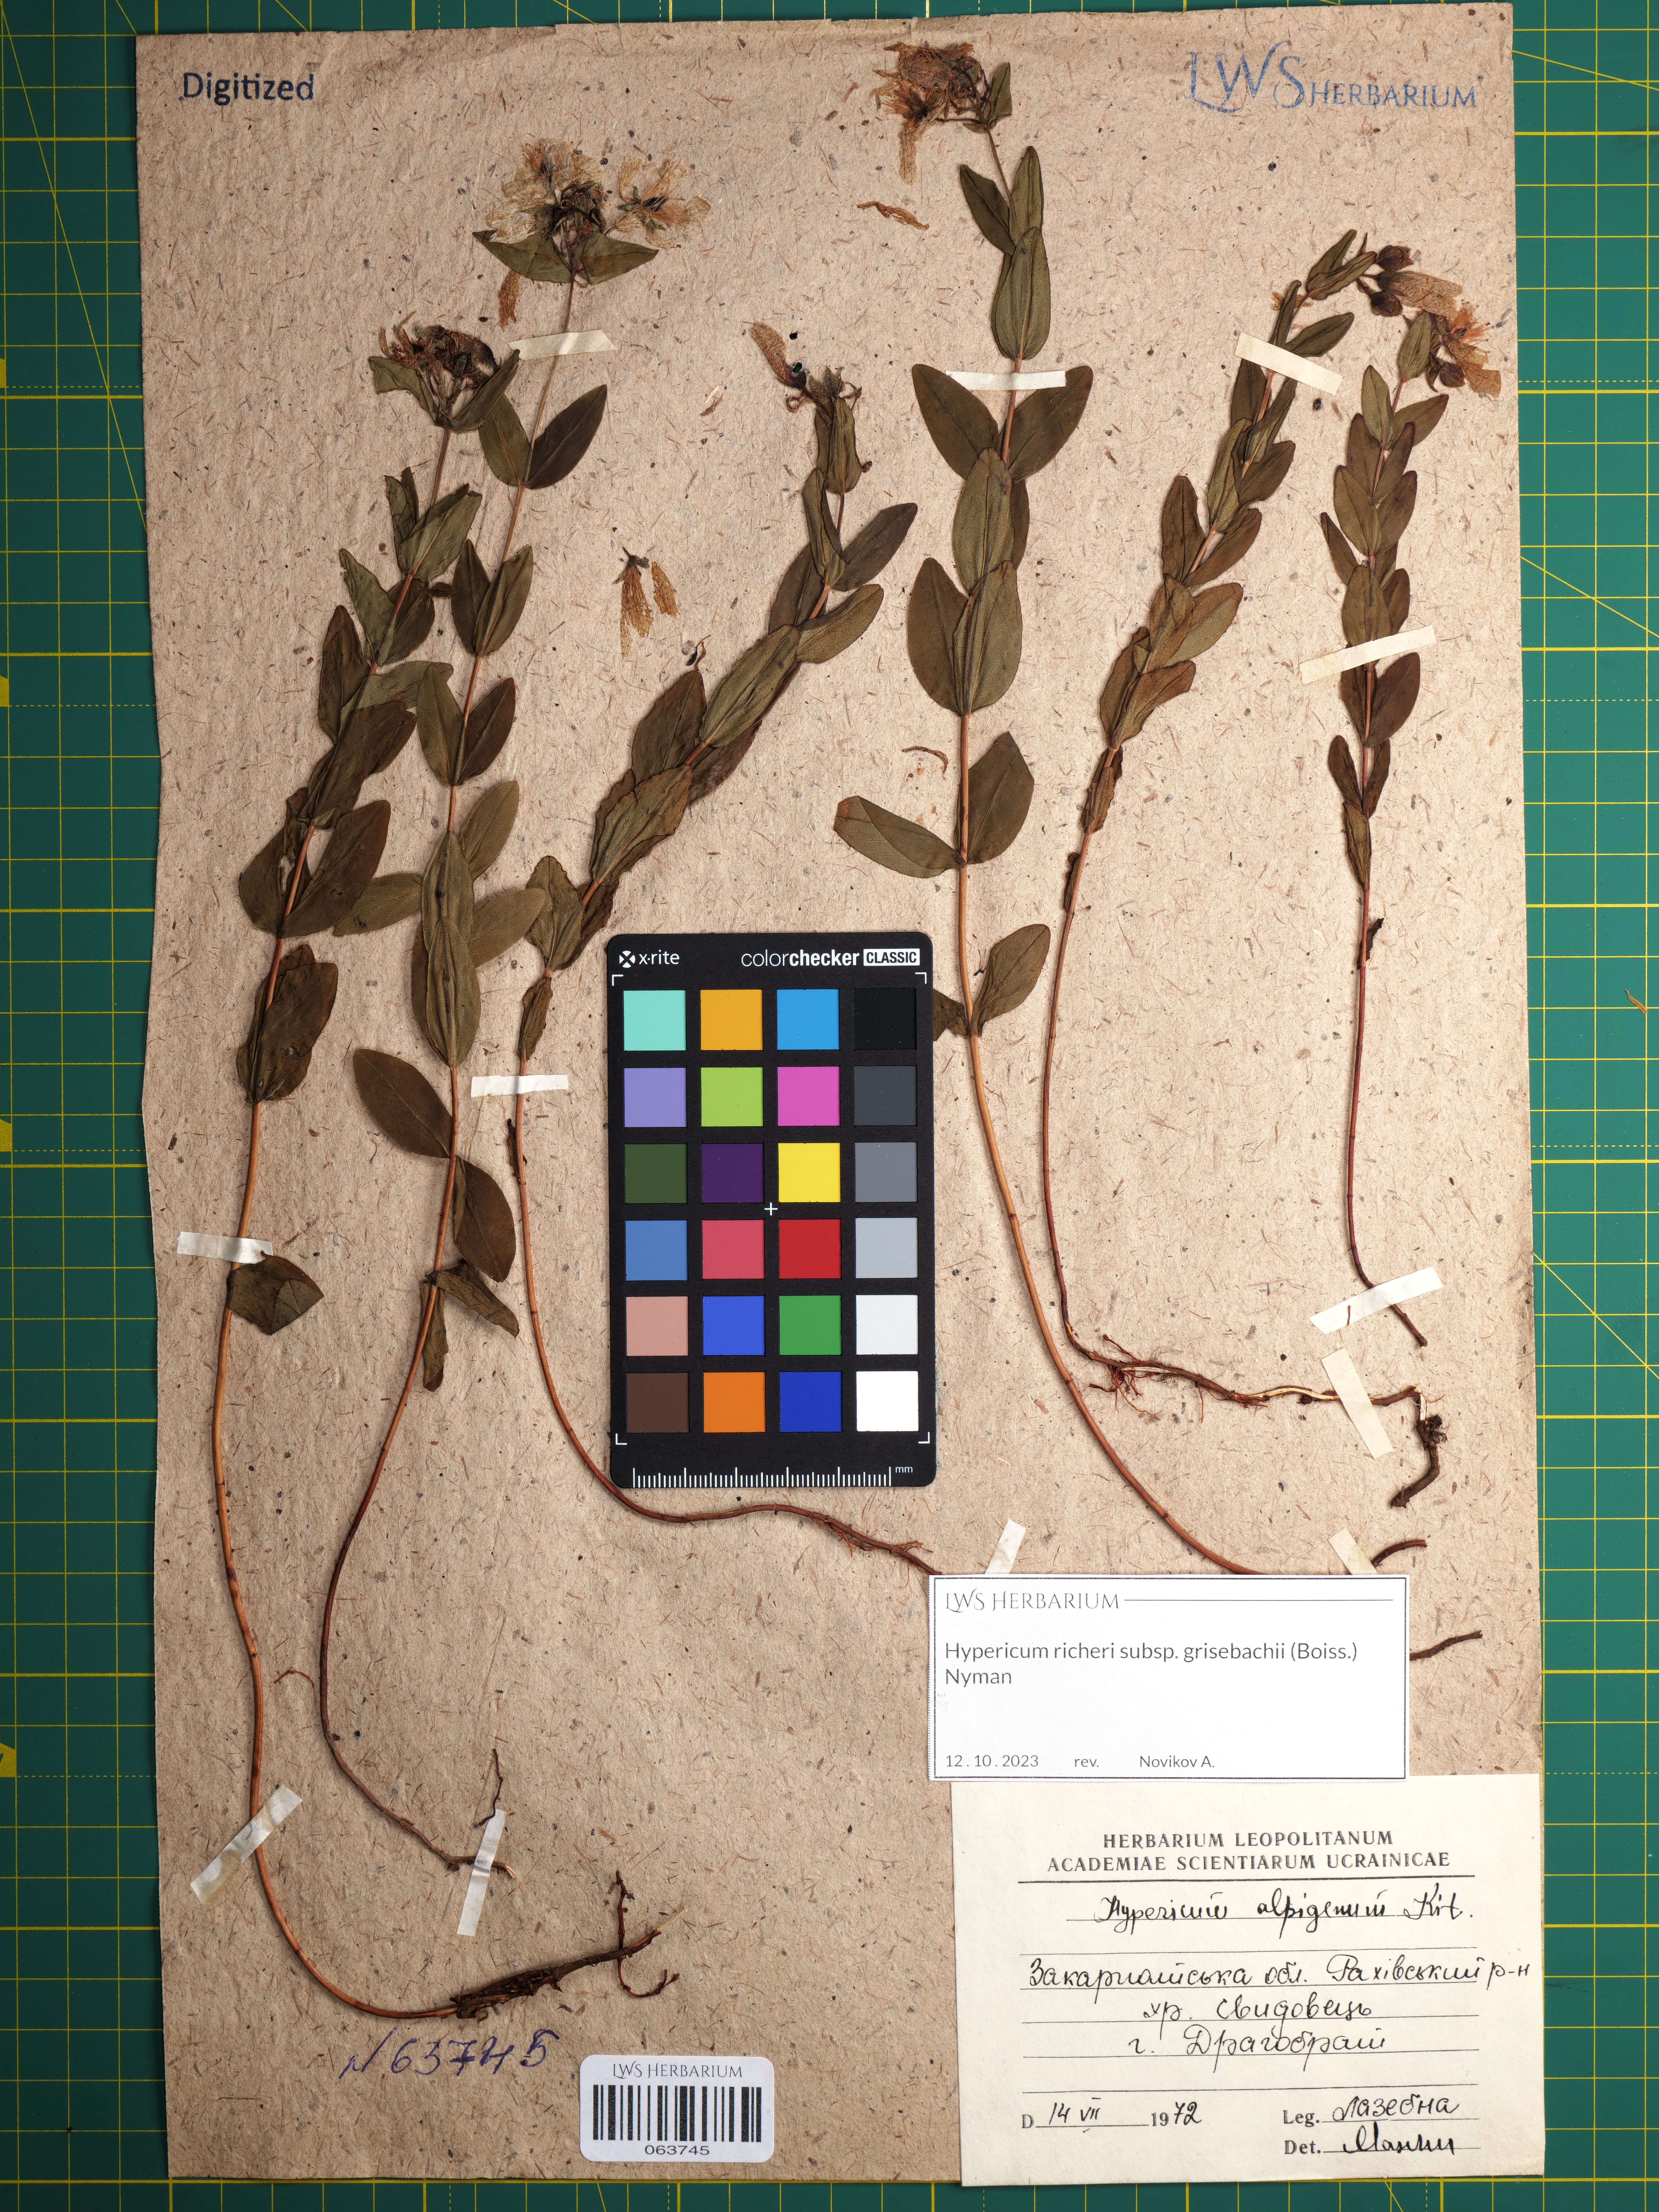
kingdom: Plantae
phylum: Tracheophyta
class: Magnoliopsida
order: Malpighiales
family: Hypericaceae
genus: Hypericum
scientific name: Hypericum richeri
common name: Alpine st john's-wort
